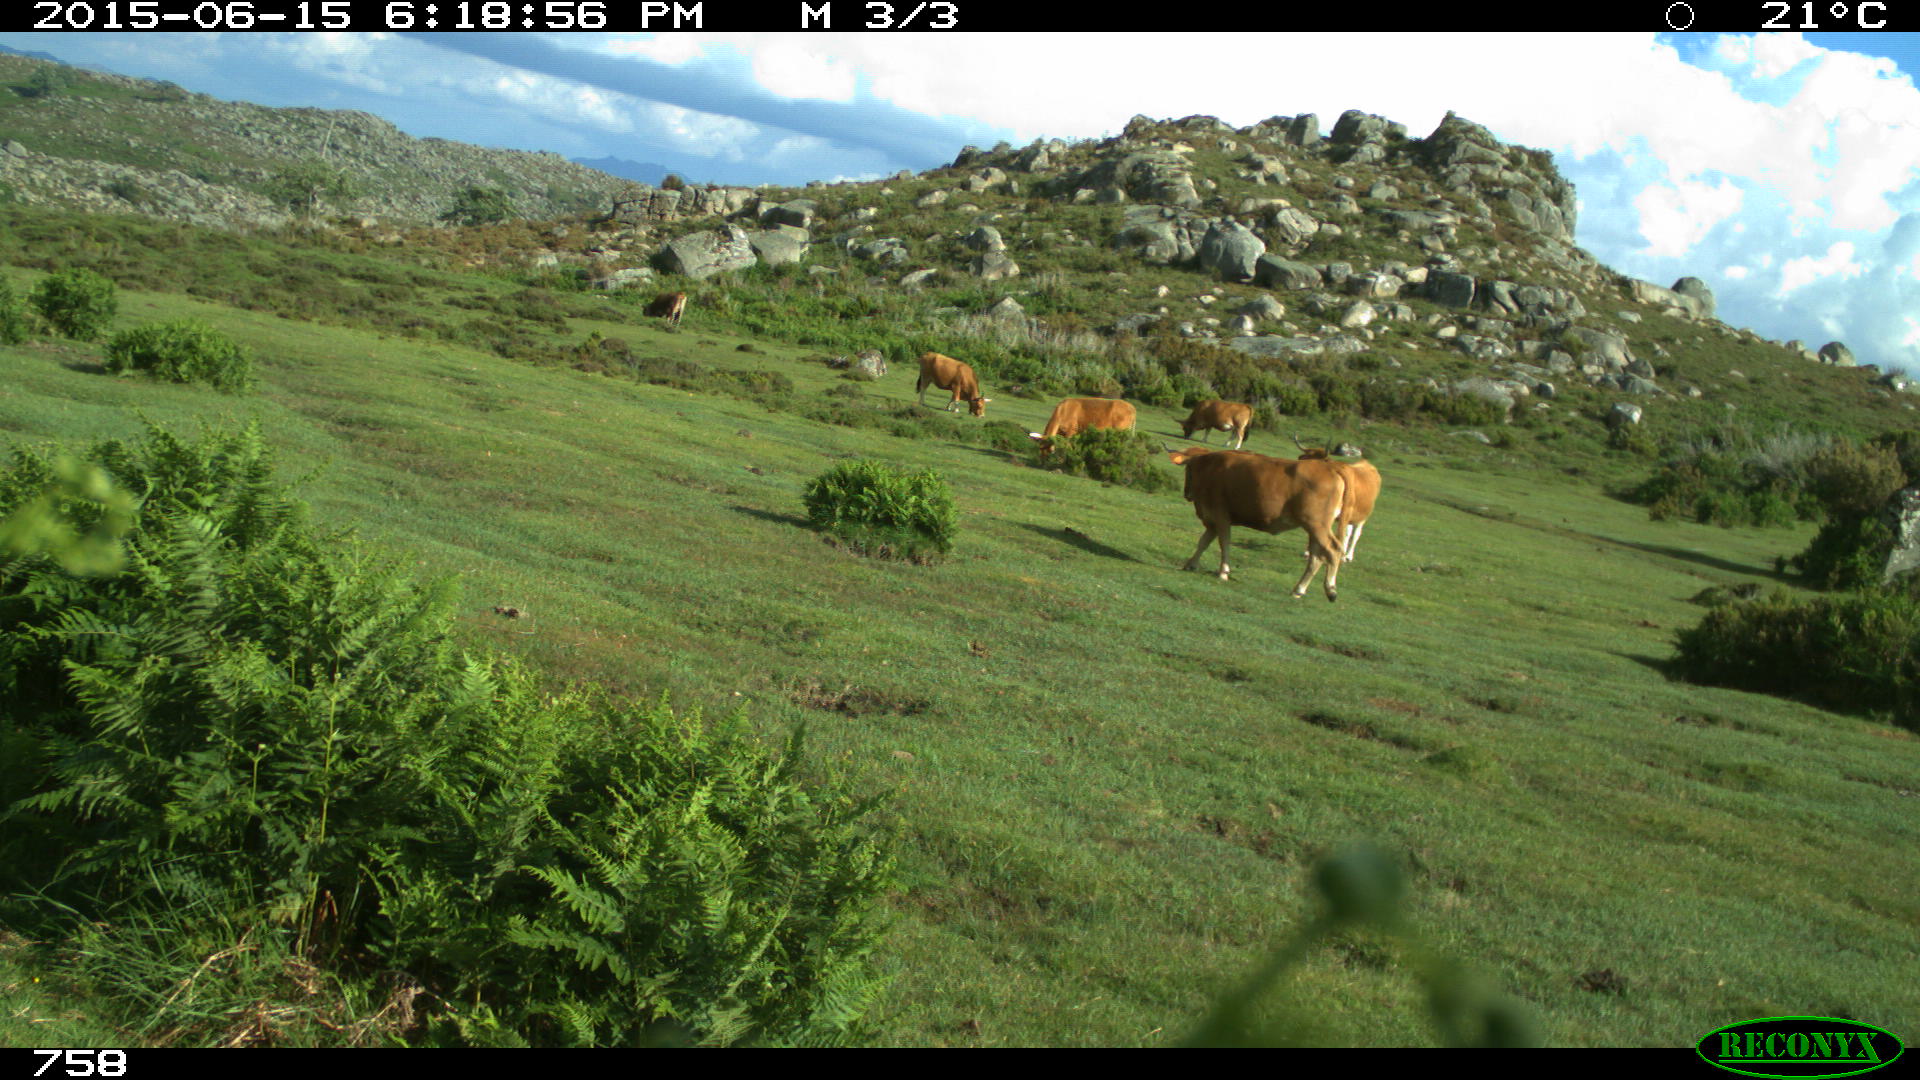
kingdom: Animalia
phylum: Chordata
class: Mammalia
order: Artiodactyla
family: Bovidae
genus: Bos
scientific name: Bos taurus
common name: Domesticated cattle
